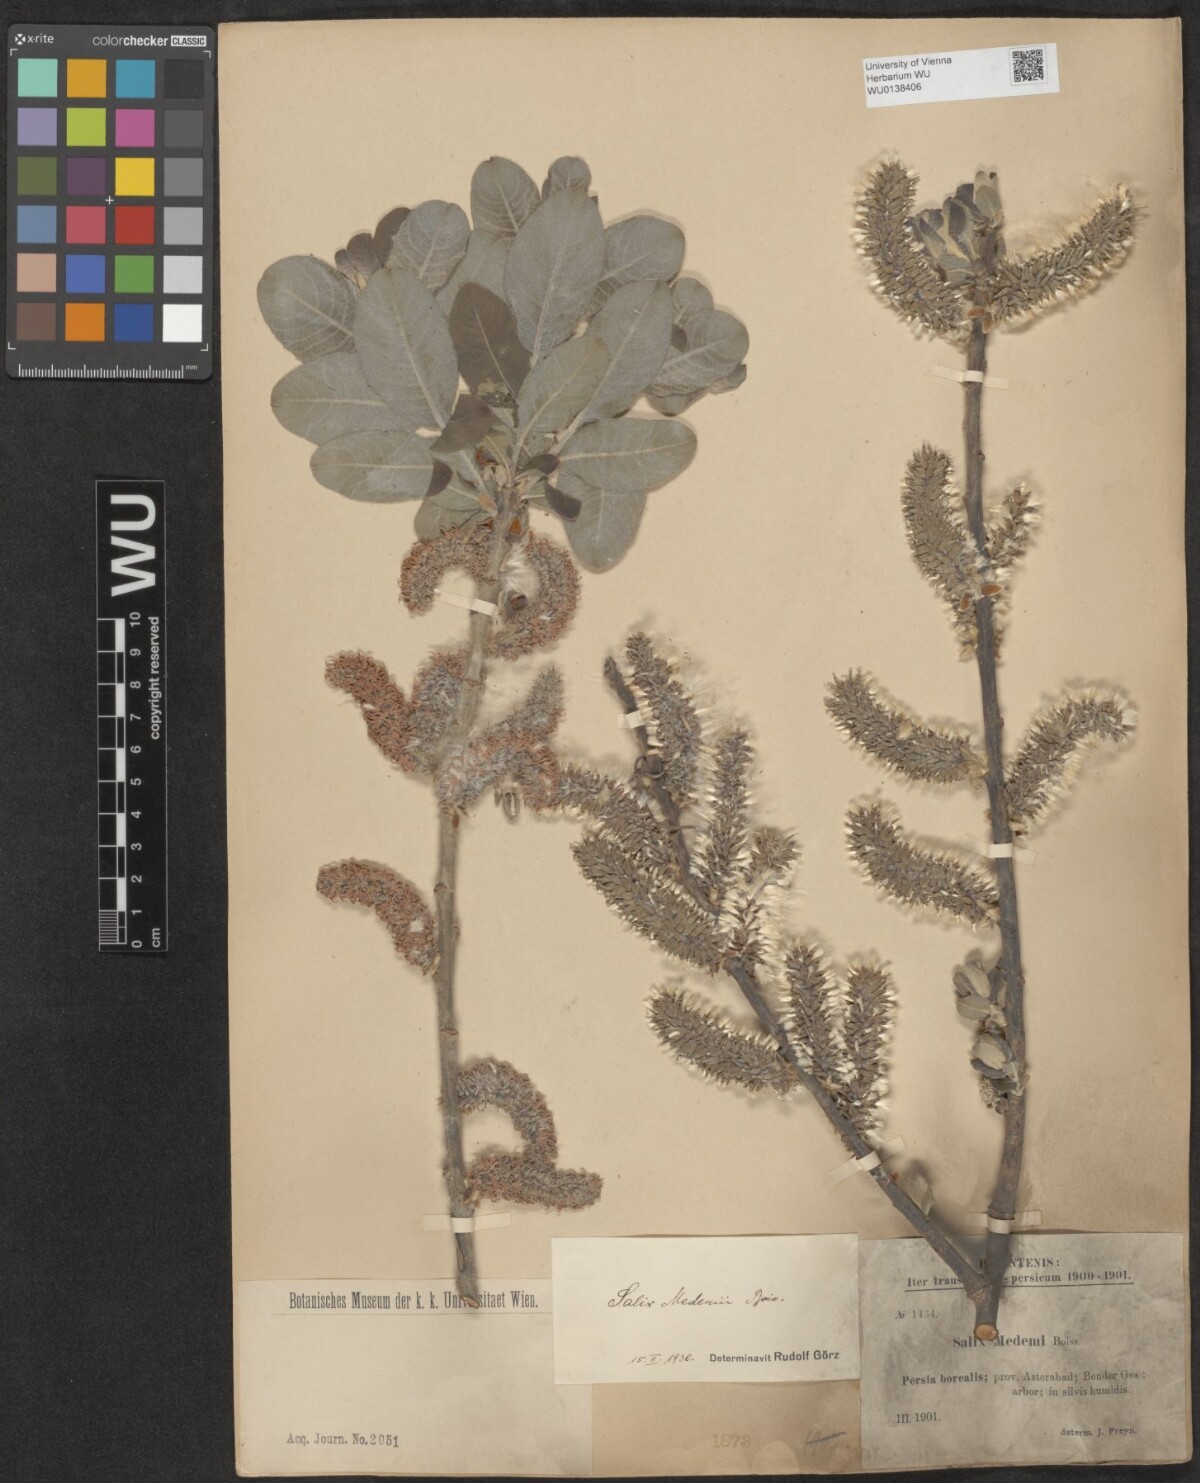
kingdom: Plantae
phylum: Tracheophyta
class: Magnoliopsida
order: Malpighiales
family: Salicaceae
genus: Salix
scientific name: Salix aegyptiaca
